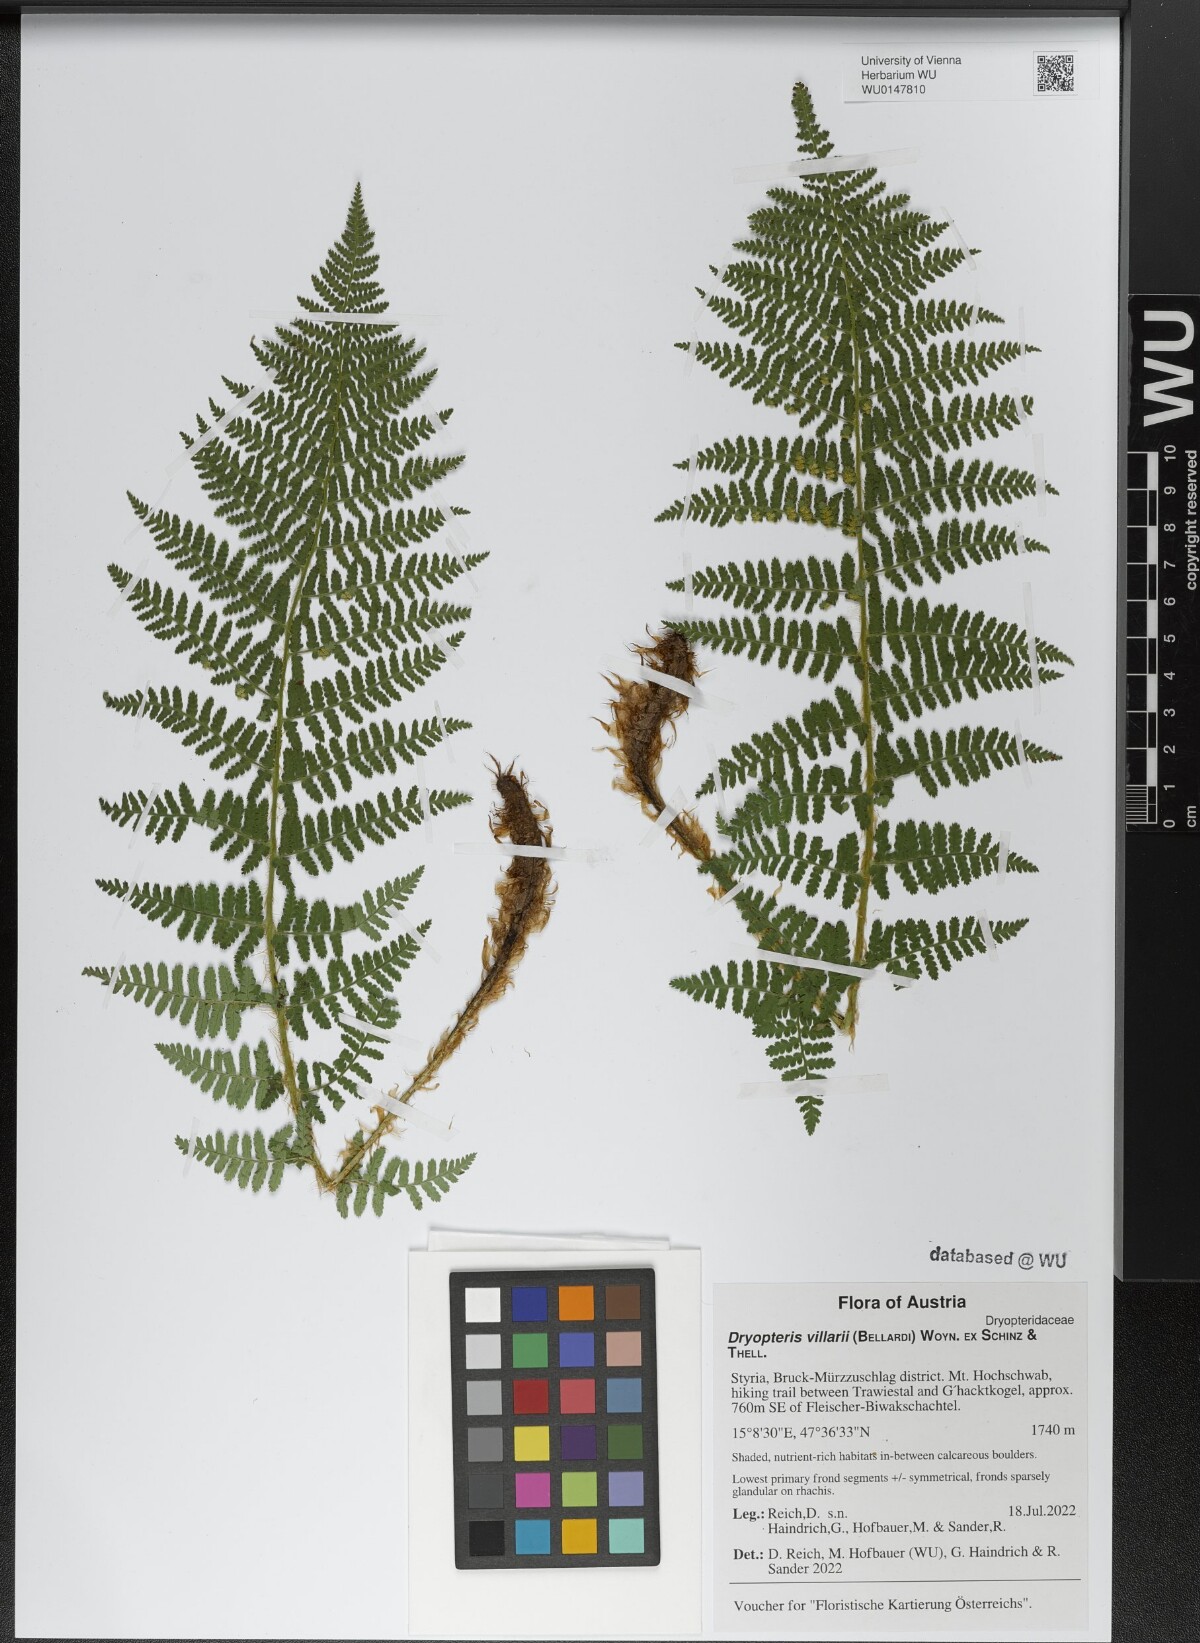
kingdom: Plantae
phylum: Tracheophyta
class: Polypodiopsida
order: Polypodiales
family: Dryopteridaceae
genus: Dryopteris
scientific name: Dryopteris villarii
